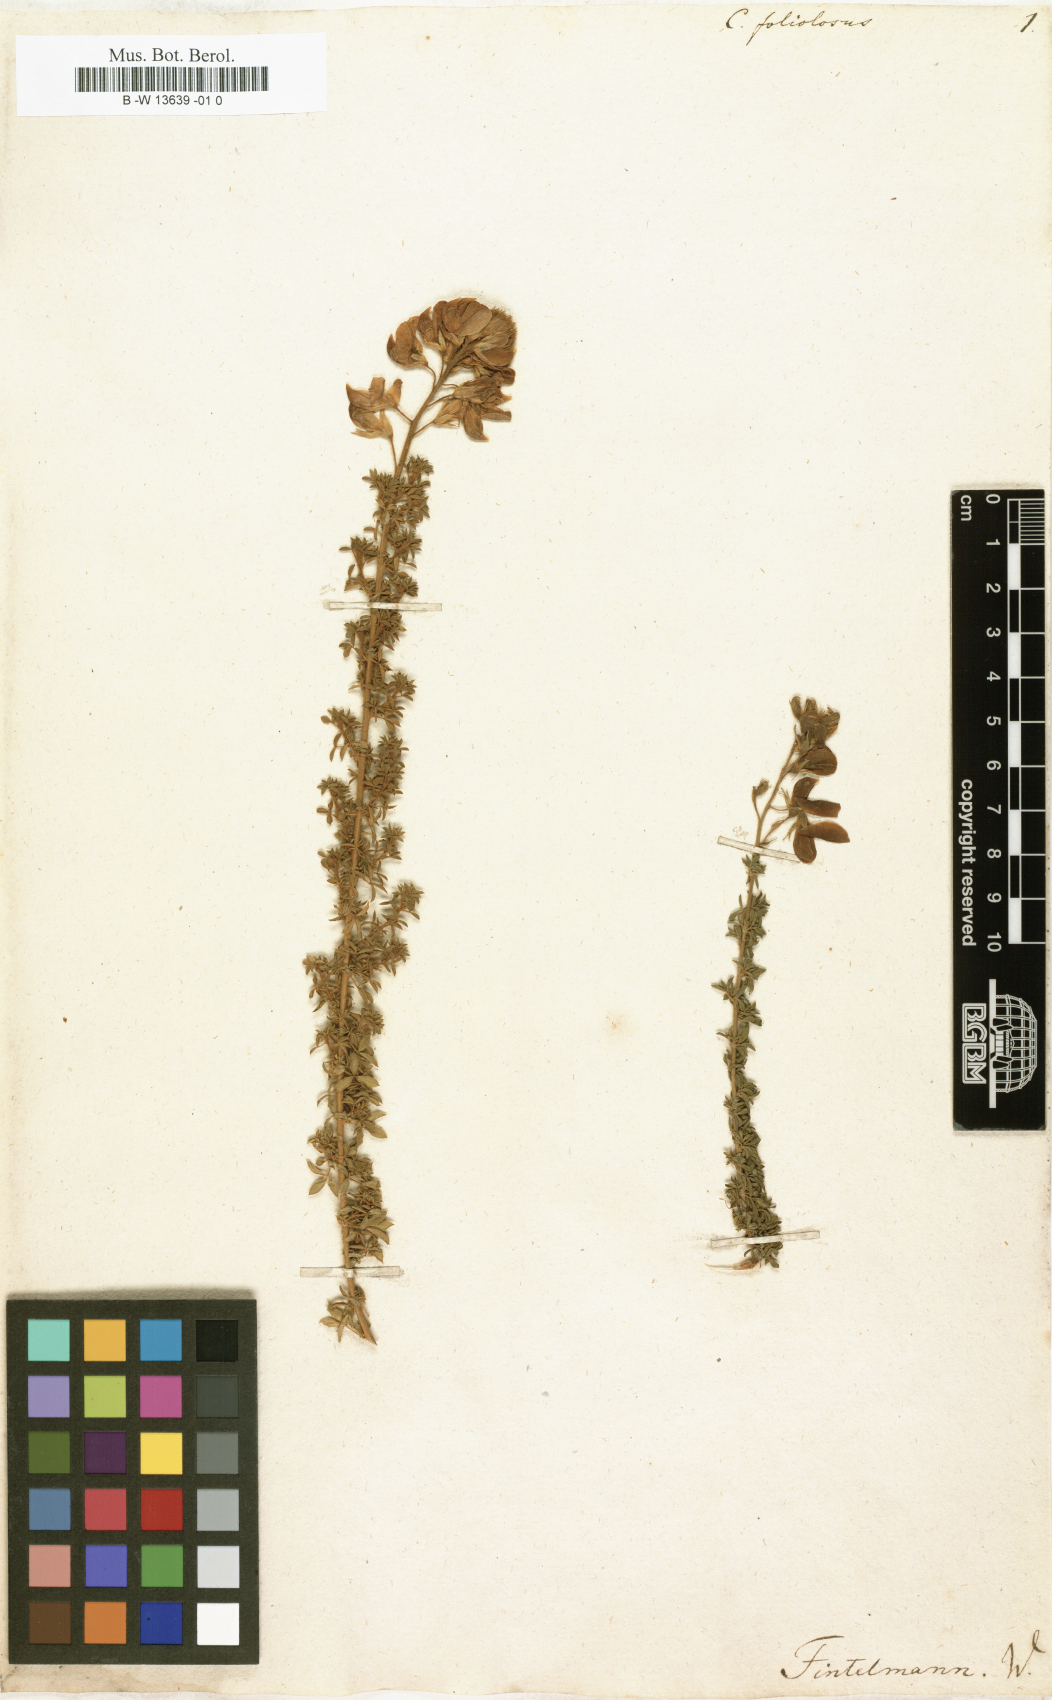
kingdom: Plantae
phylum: Tracheophyta
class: Magnoliopsida
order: Fabales
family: Fabaceae
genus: Adenocarpus
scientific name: Adenocarpus foliolosus
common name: Canary island flatpod
